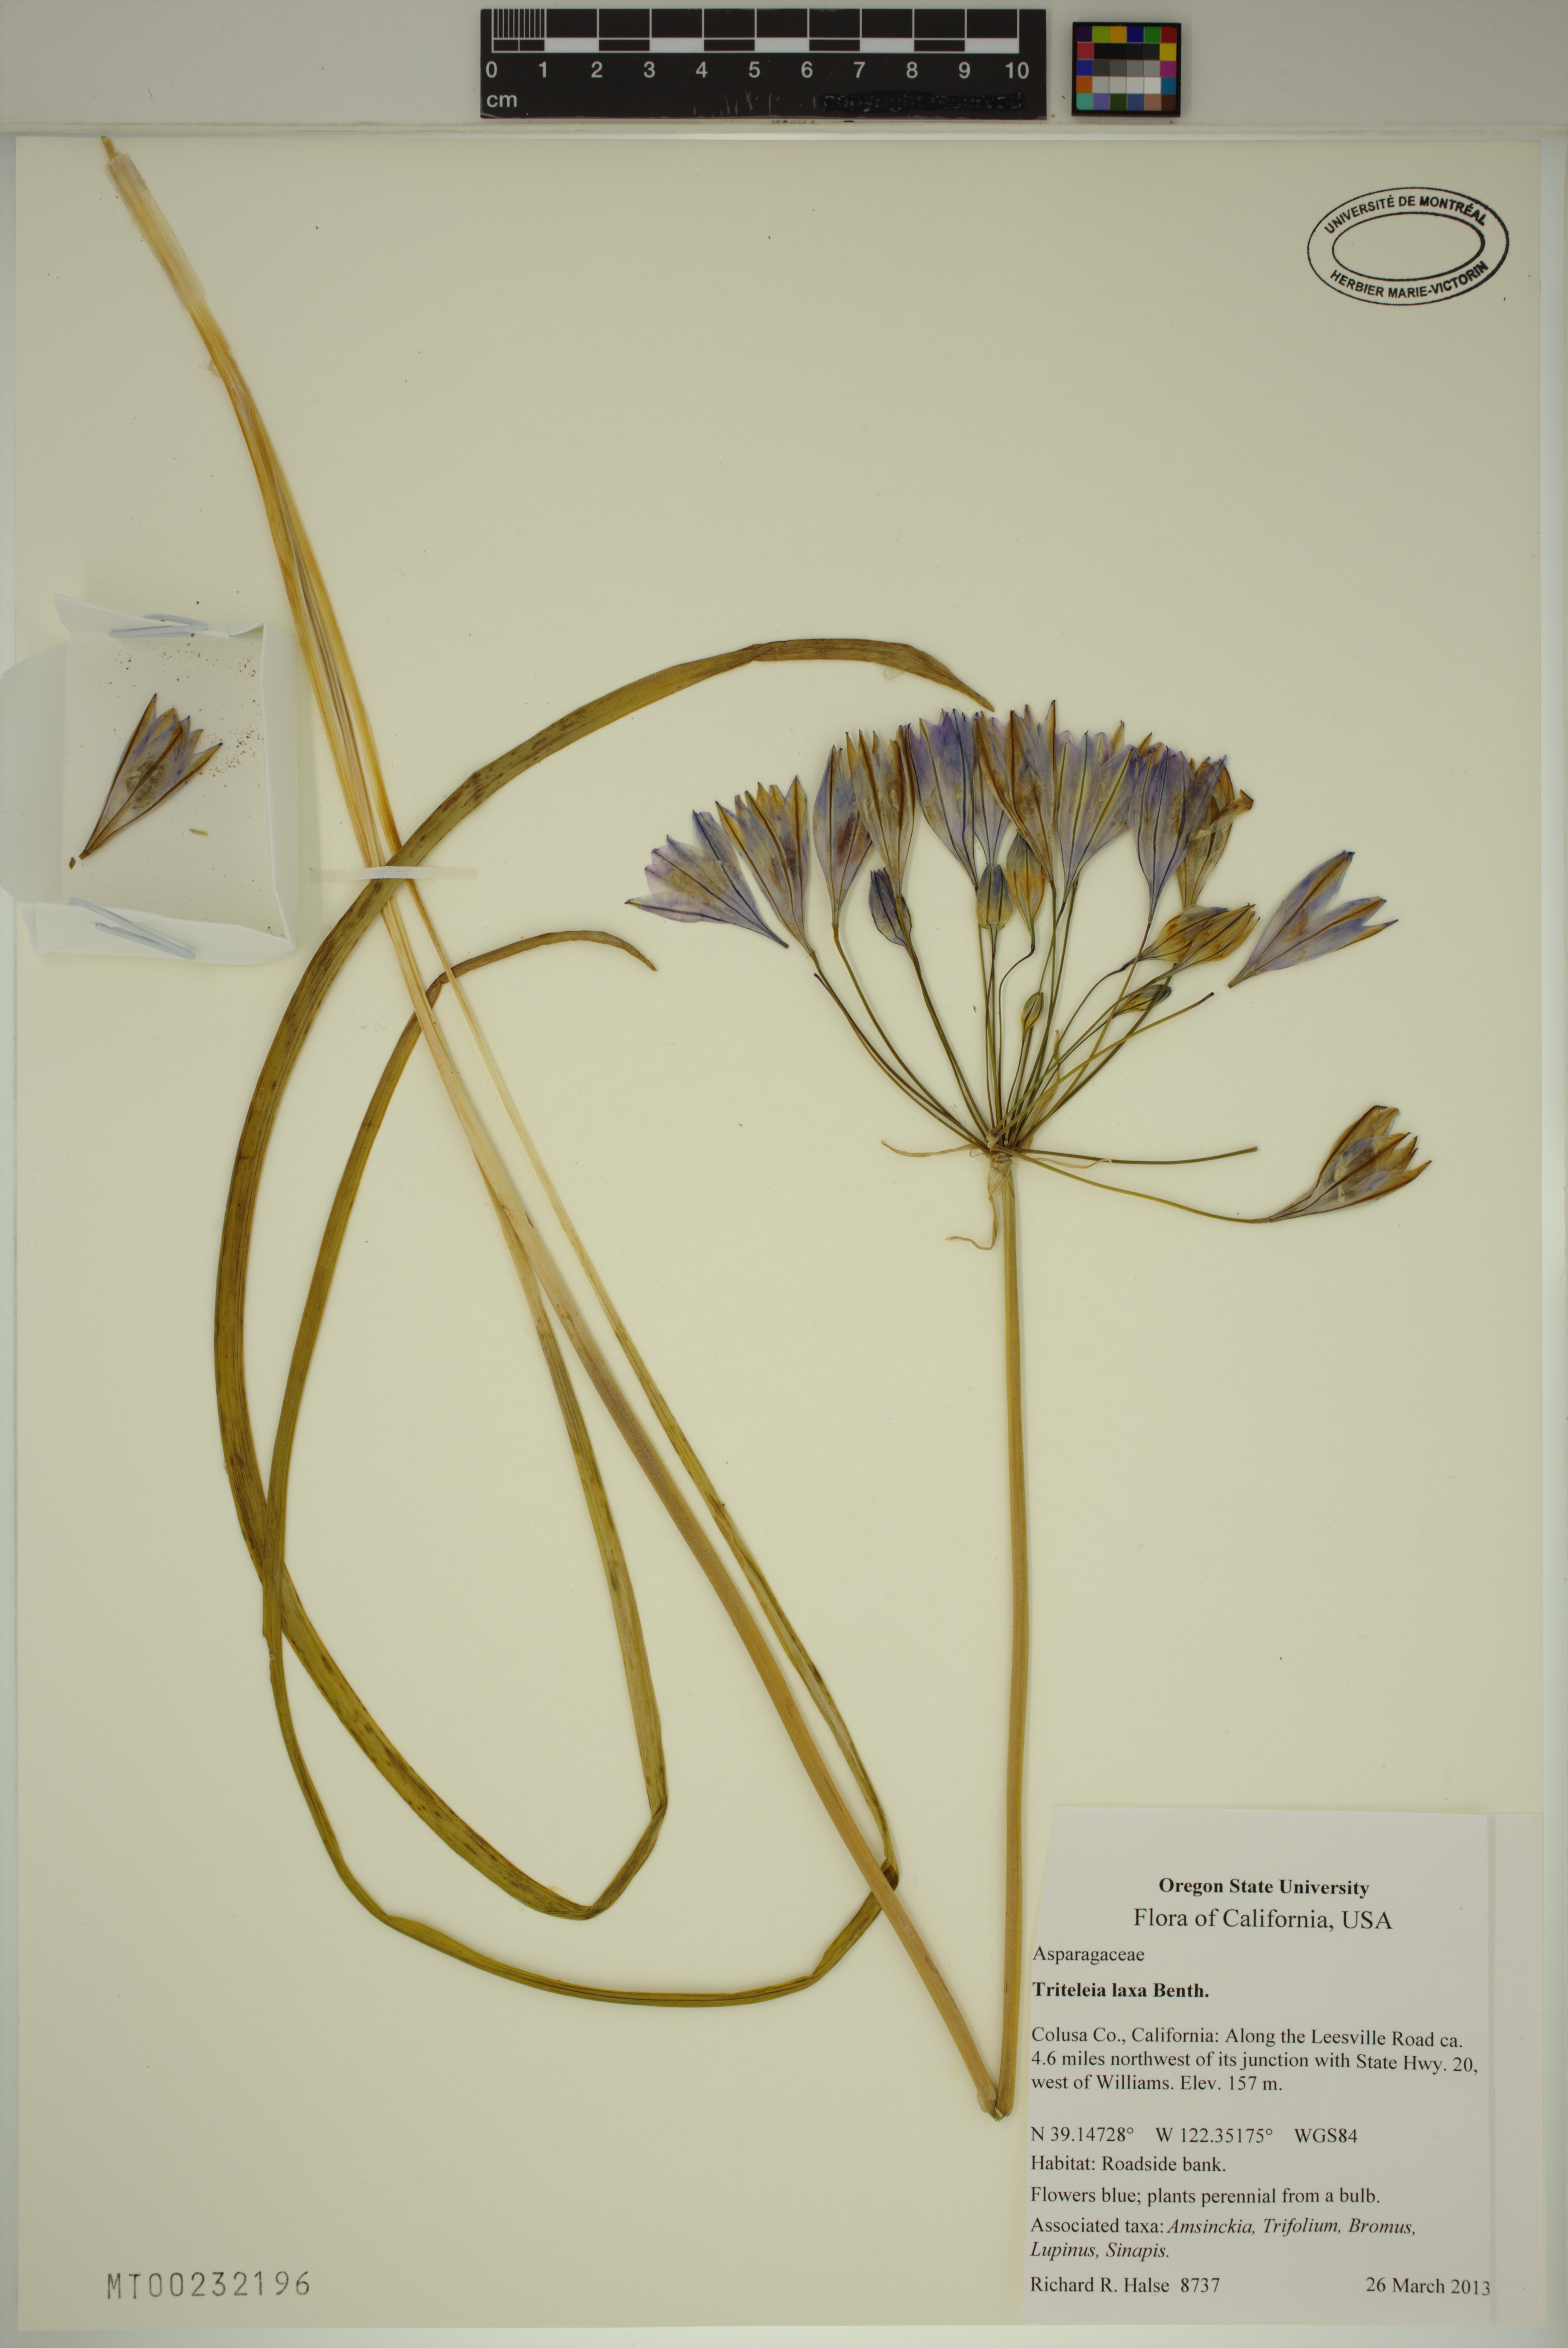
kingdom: Plantae
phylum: Tracheophyta
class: Liliopsida
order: Asparagales
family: Asparagaceae
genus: Triteleia
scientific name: Triteleia laxa
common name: Triplet-lily
